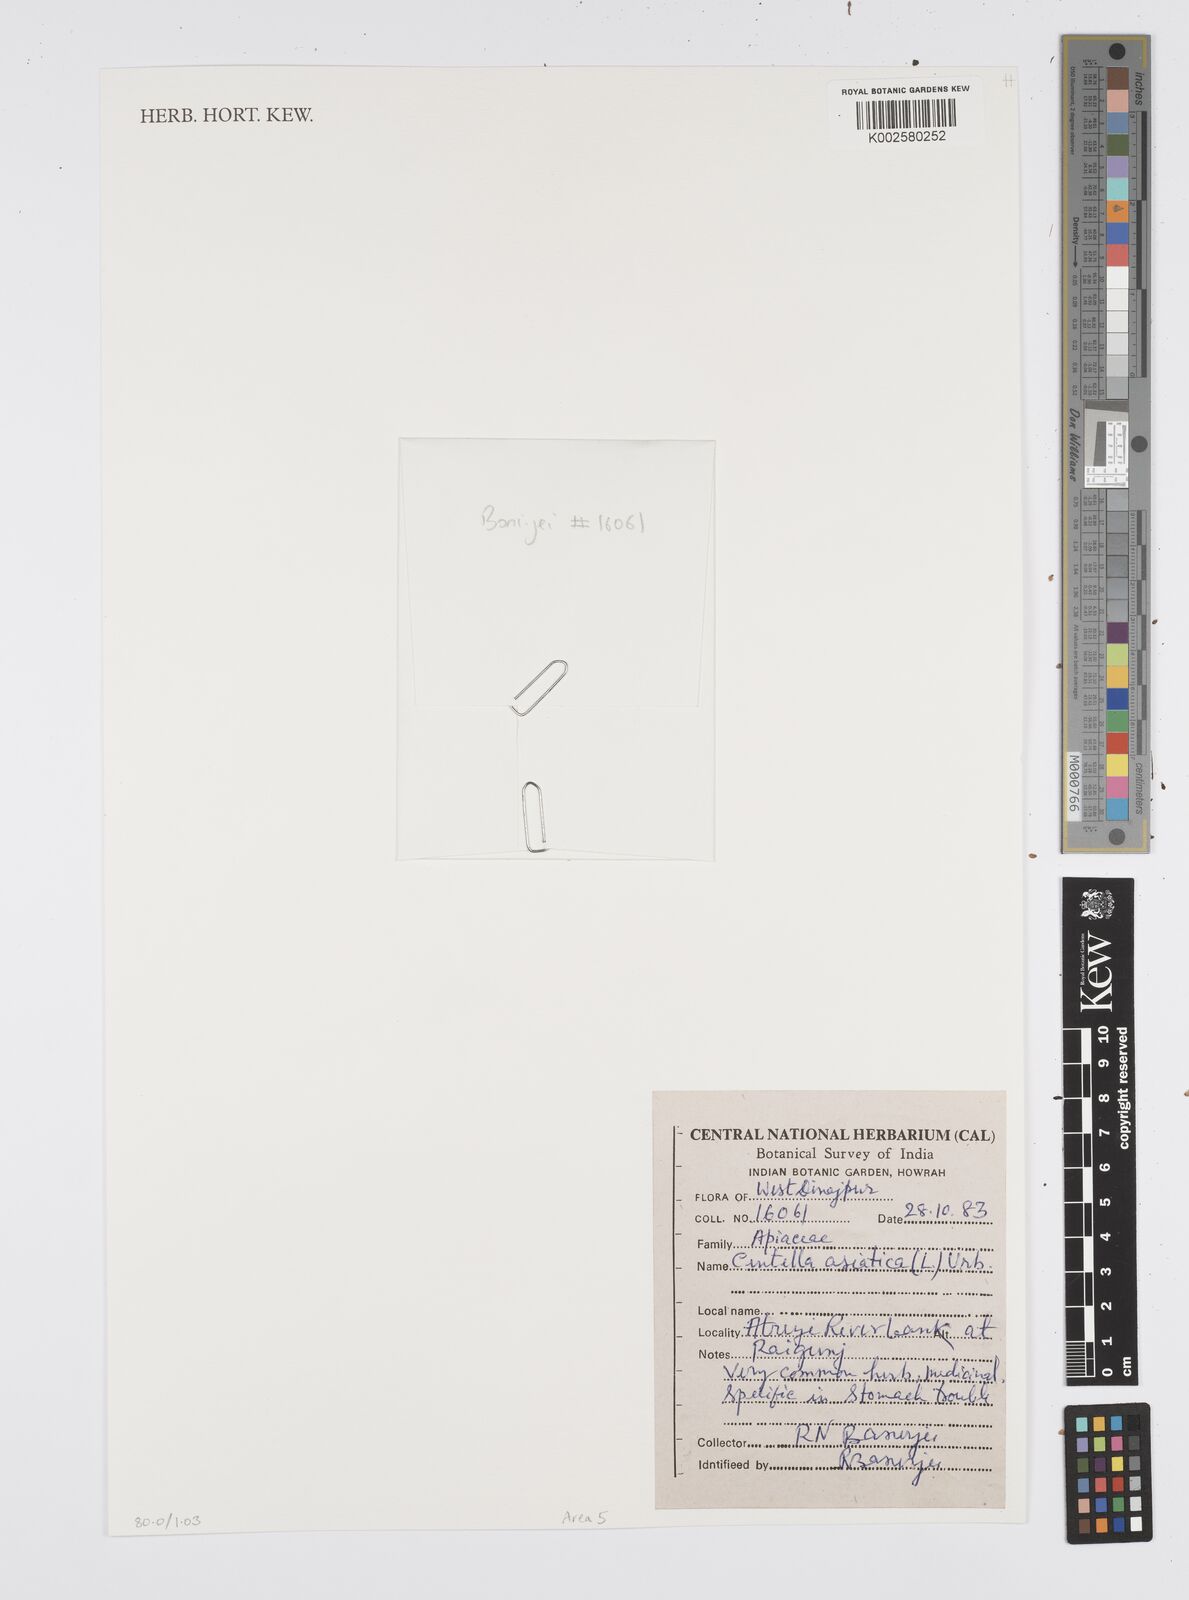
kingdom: Plantae
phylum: Tracheophyta
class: Magnoliopsida
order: Apiales
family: Apiaceae
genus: Centella
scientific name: Centella asiatica
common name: Spadeleaf
